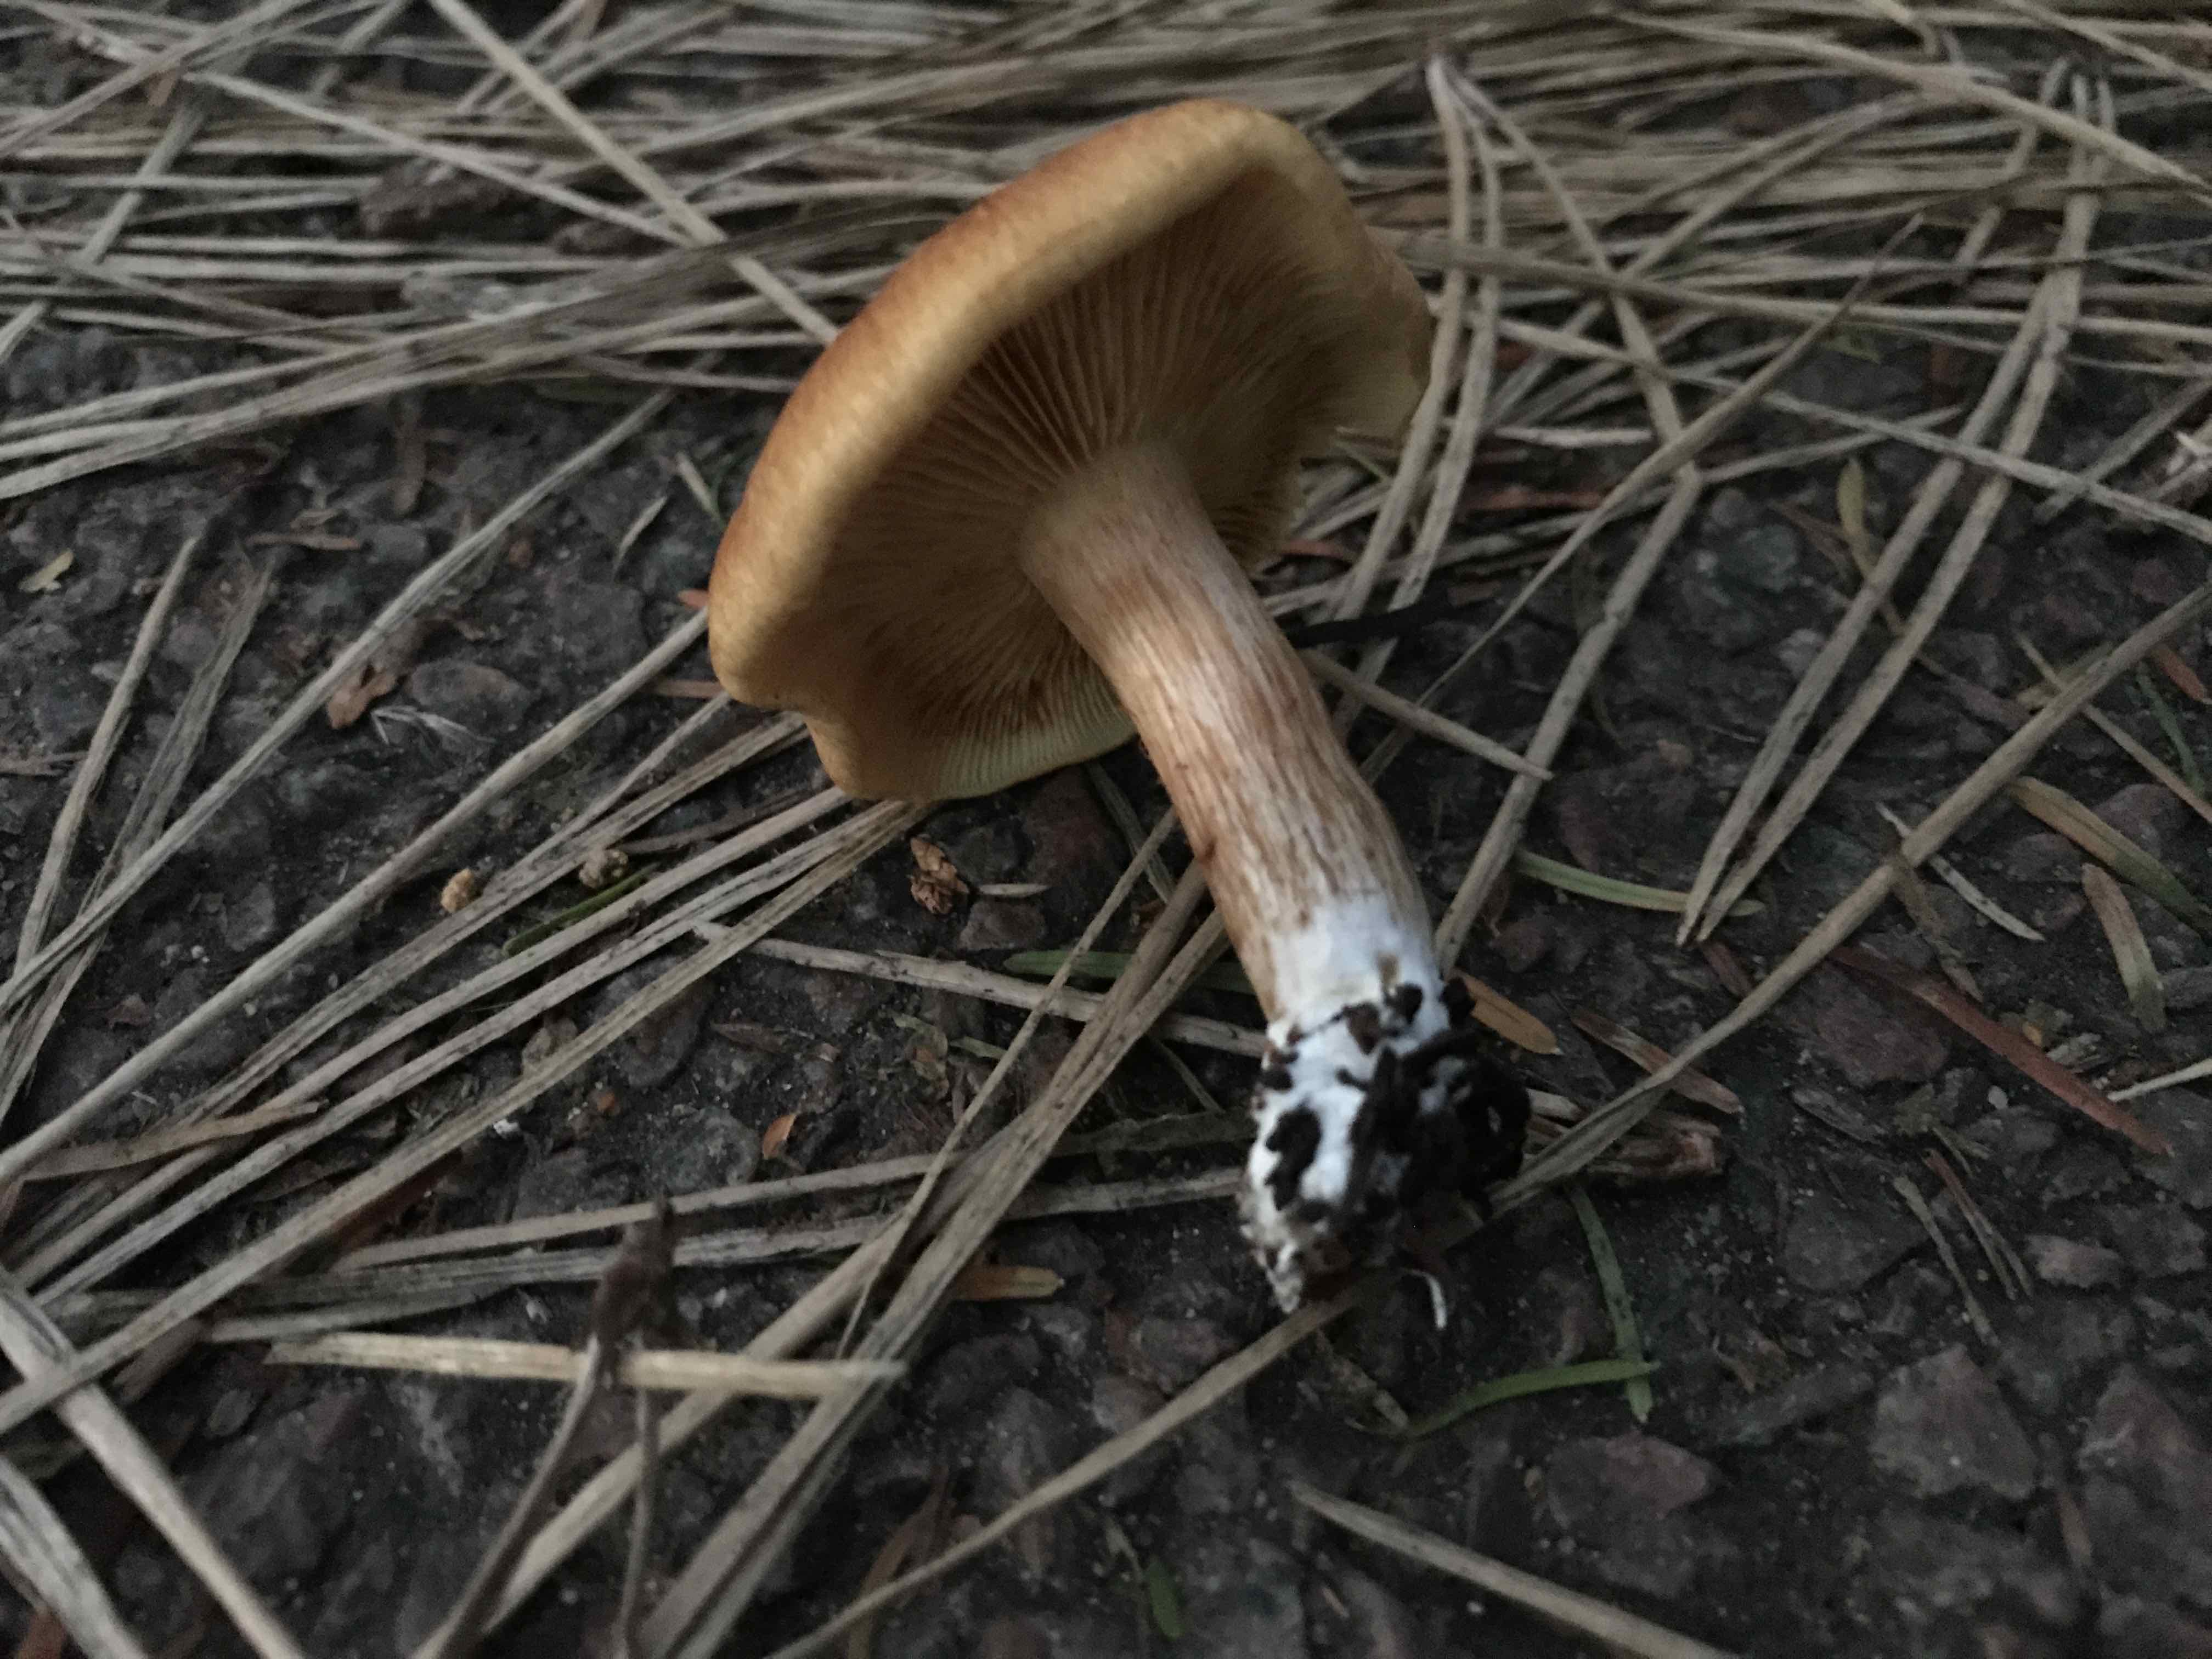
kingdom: Fungi
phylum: Basidiomycota
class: Agaricomycetes
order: Agaricales
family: Hymenogastraceae
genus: Gymnopilus
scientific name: Gymnopilus penetrans
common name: plettet flammehat
